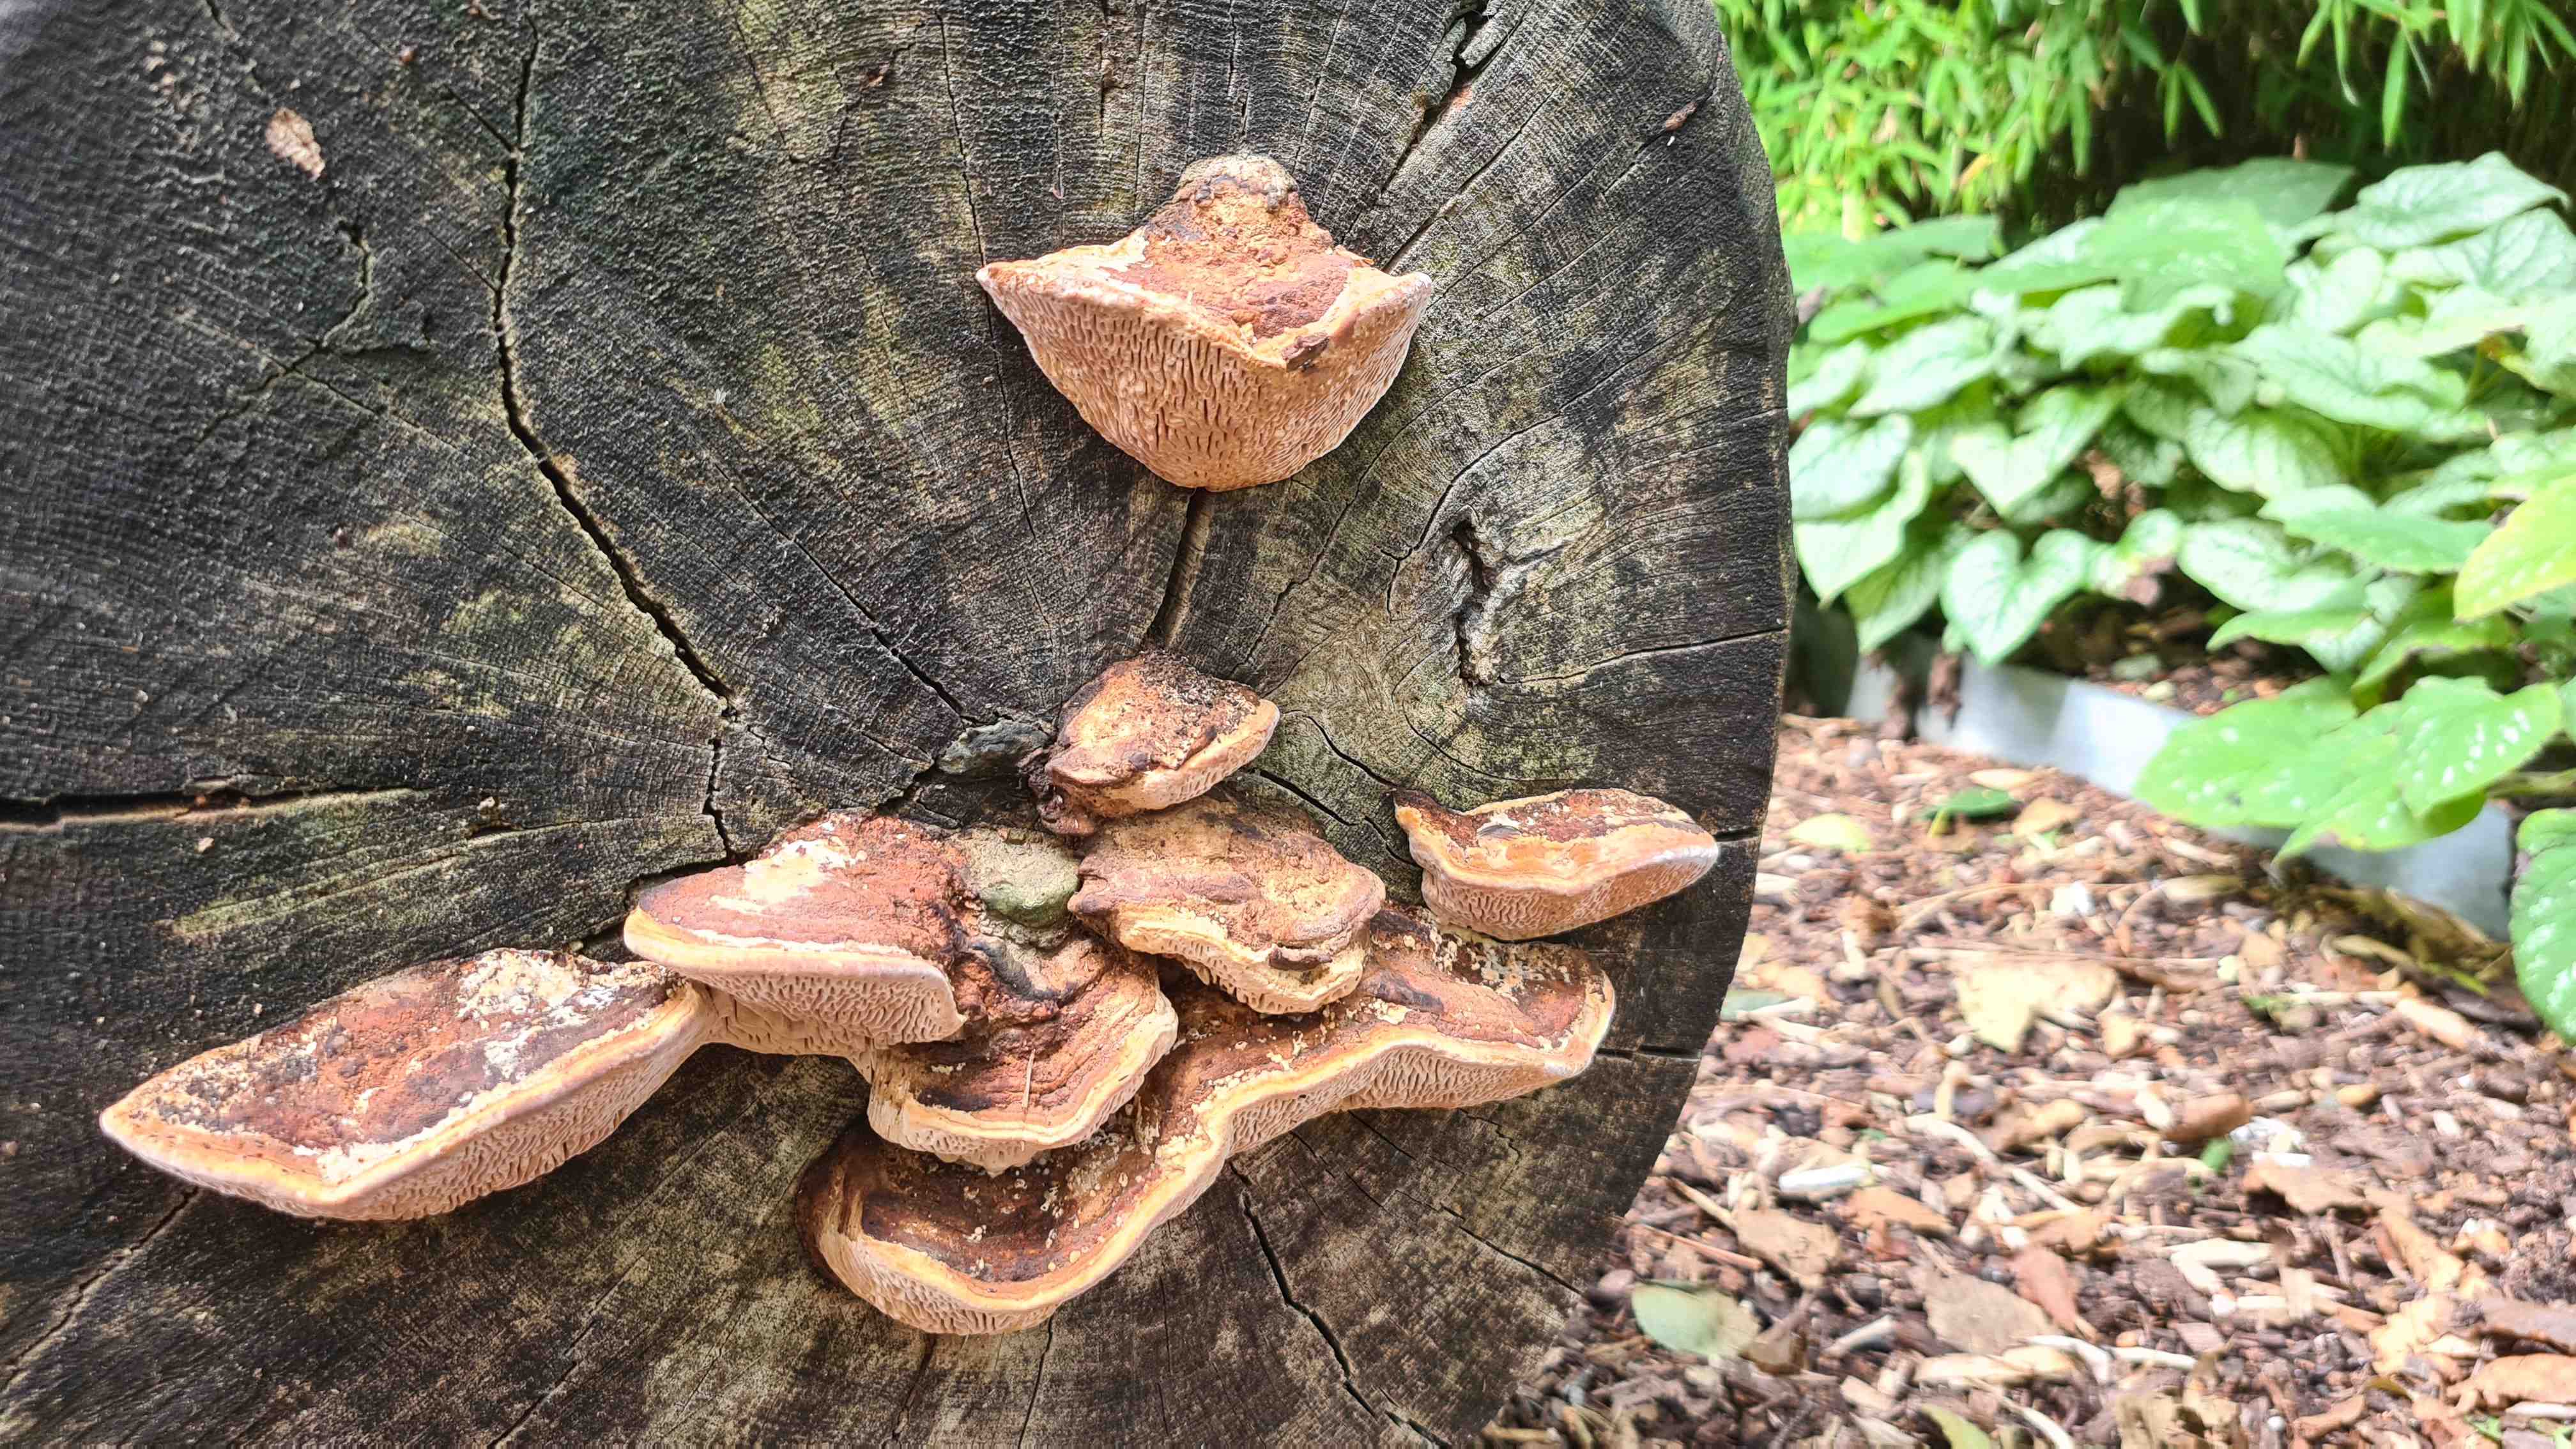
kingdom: Fungi
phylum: Basidiomycota
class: Agaricomycetes
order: Polyporales
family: Fomitopsidaceae
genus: Daedalea
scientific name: Daedalea quercina
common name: ege-labyrintsvamp
